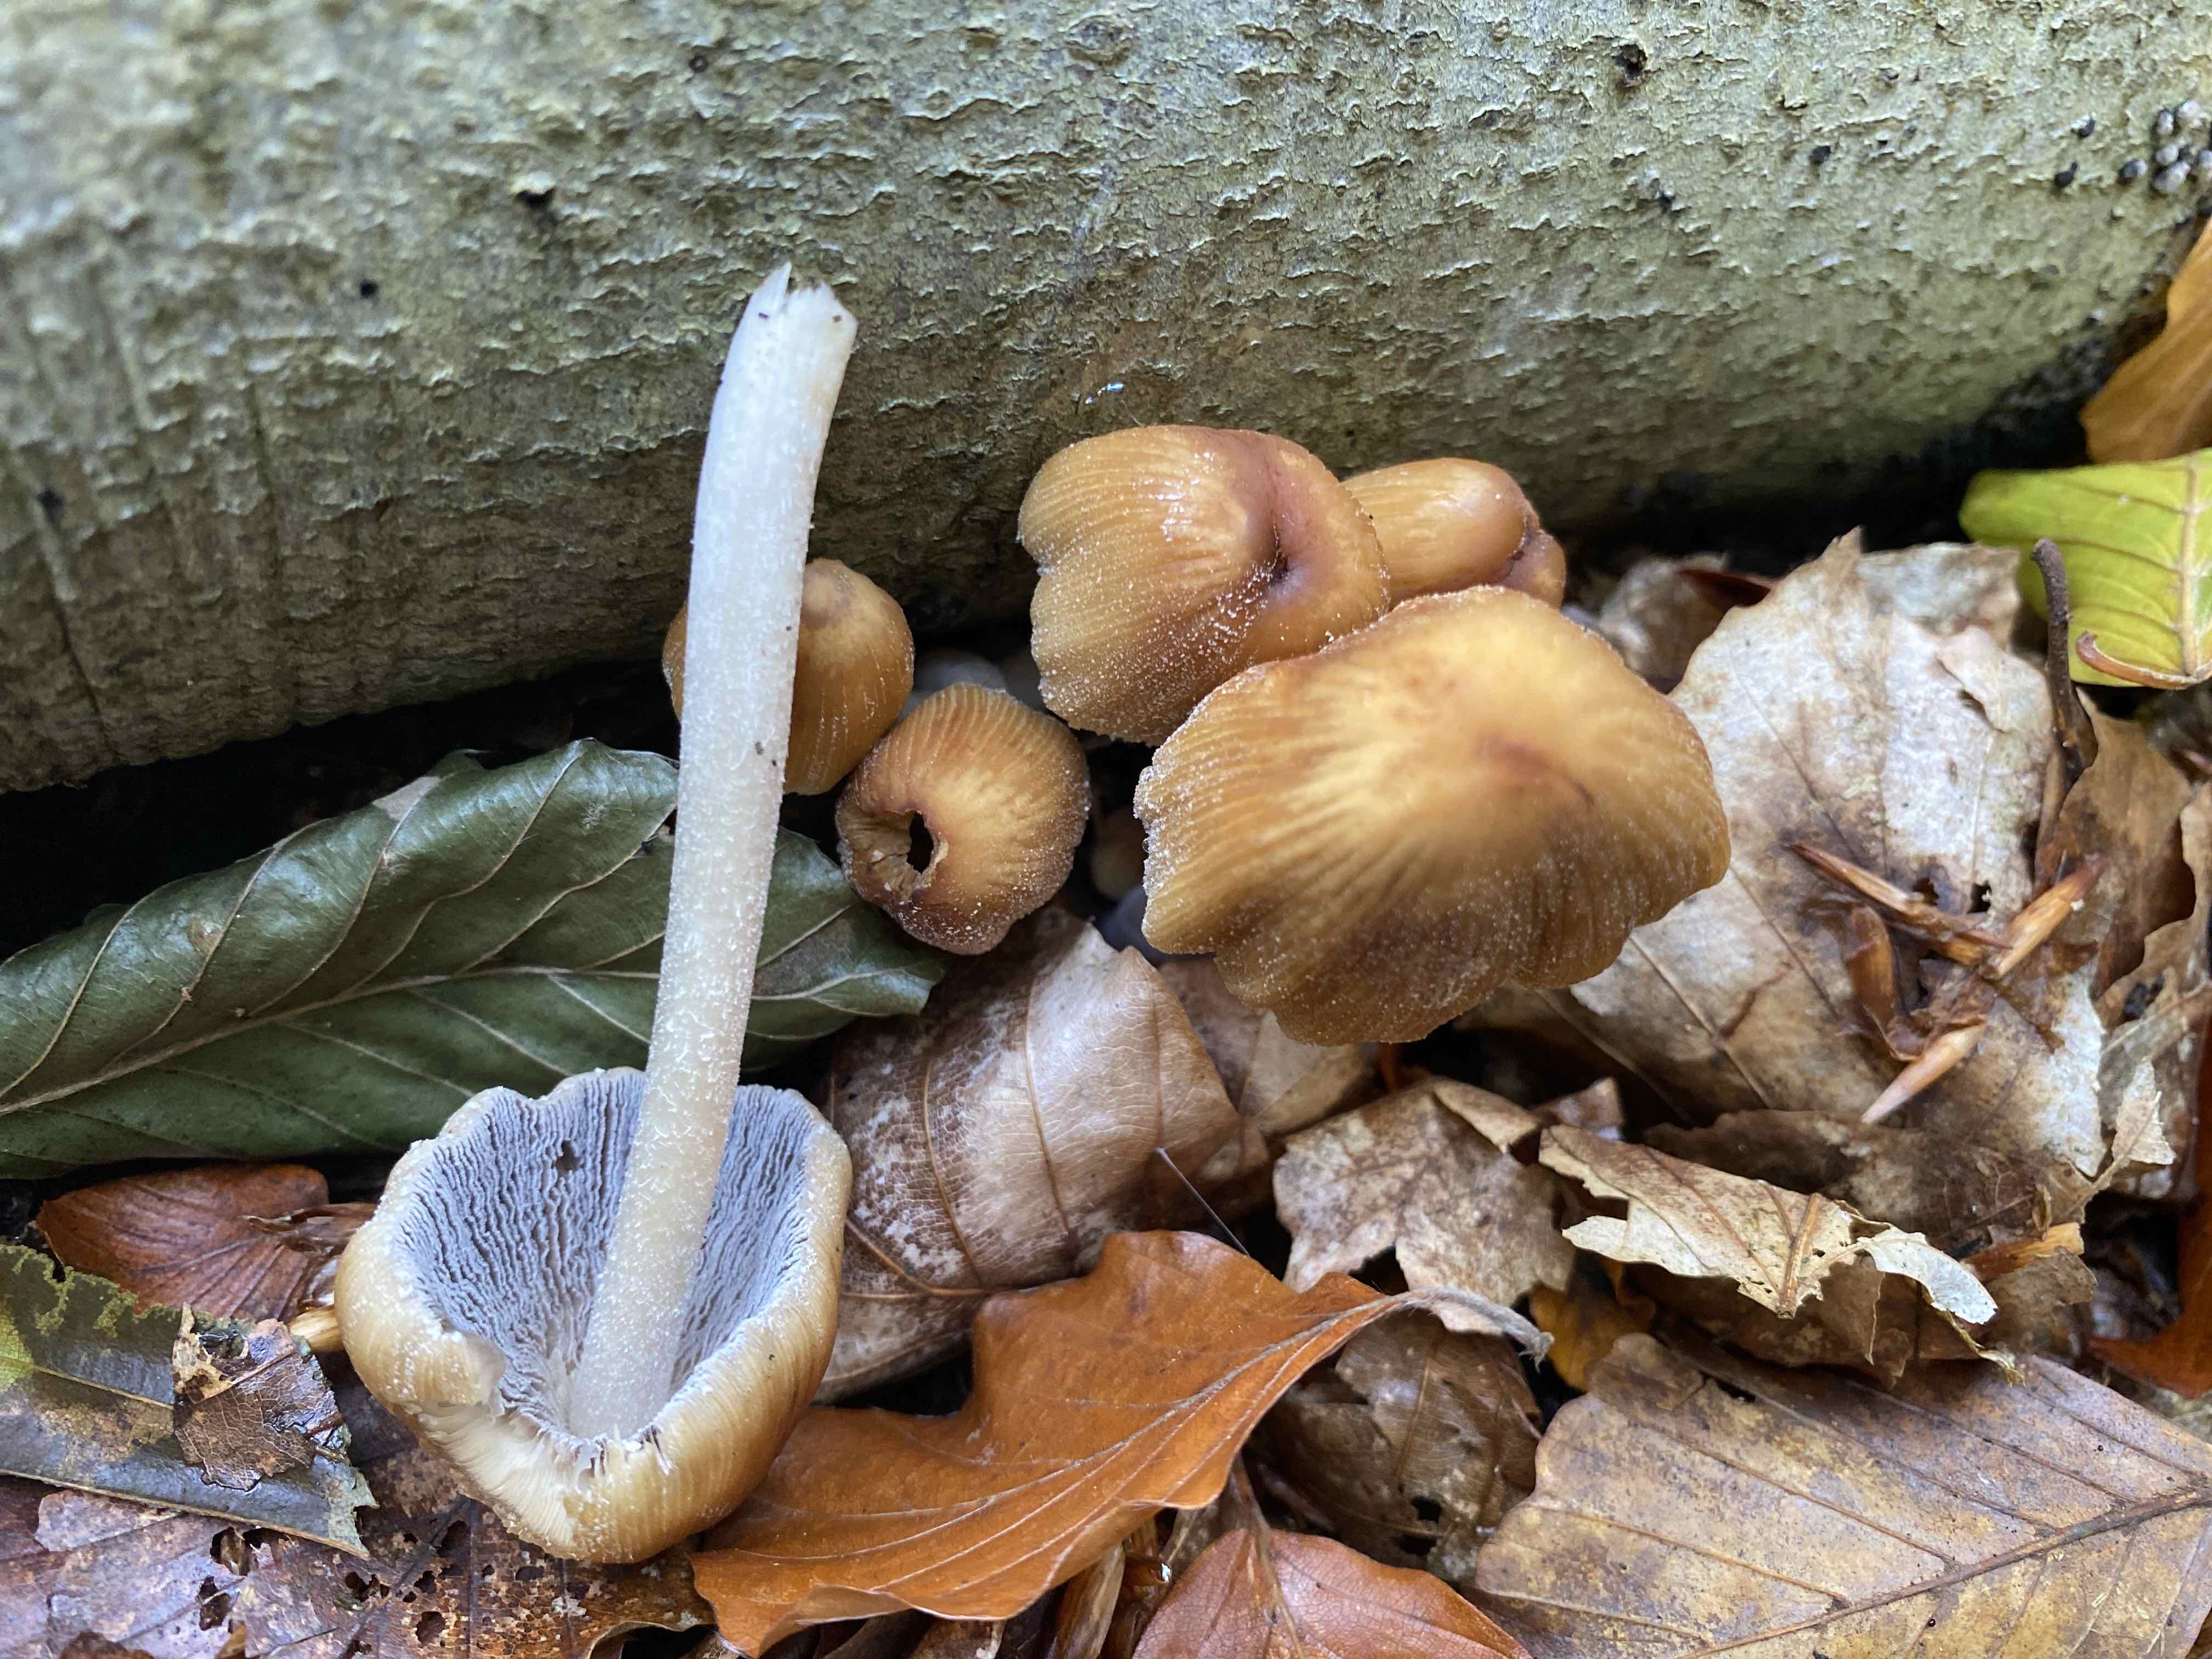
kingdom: Fungi
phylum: Basidiomycota
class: Agaricomycetes
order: Agaricales
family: Psathyrellaceae
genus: Coprinellus
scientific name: Coprinellus micaceus
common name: glimmer-blækhat
